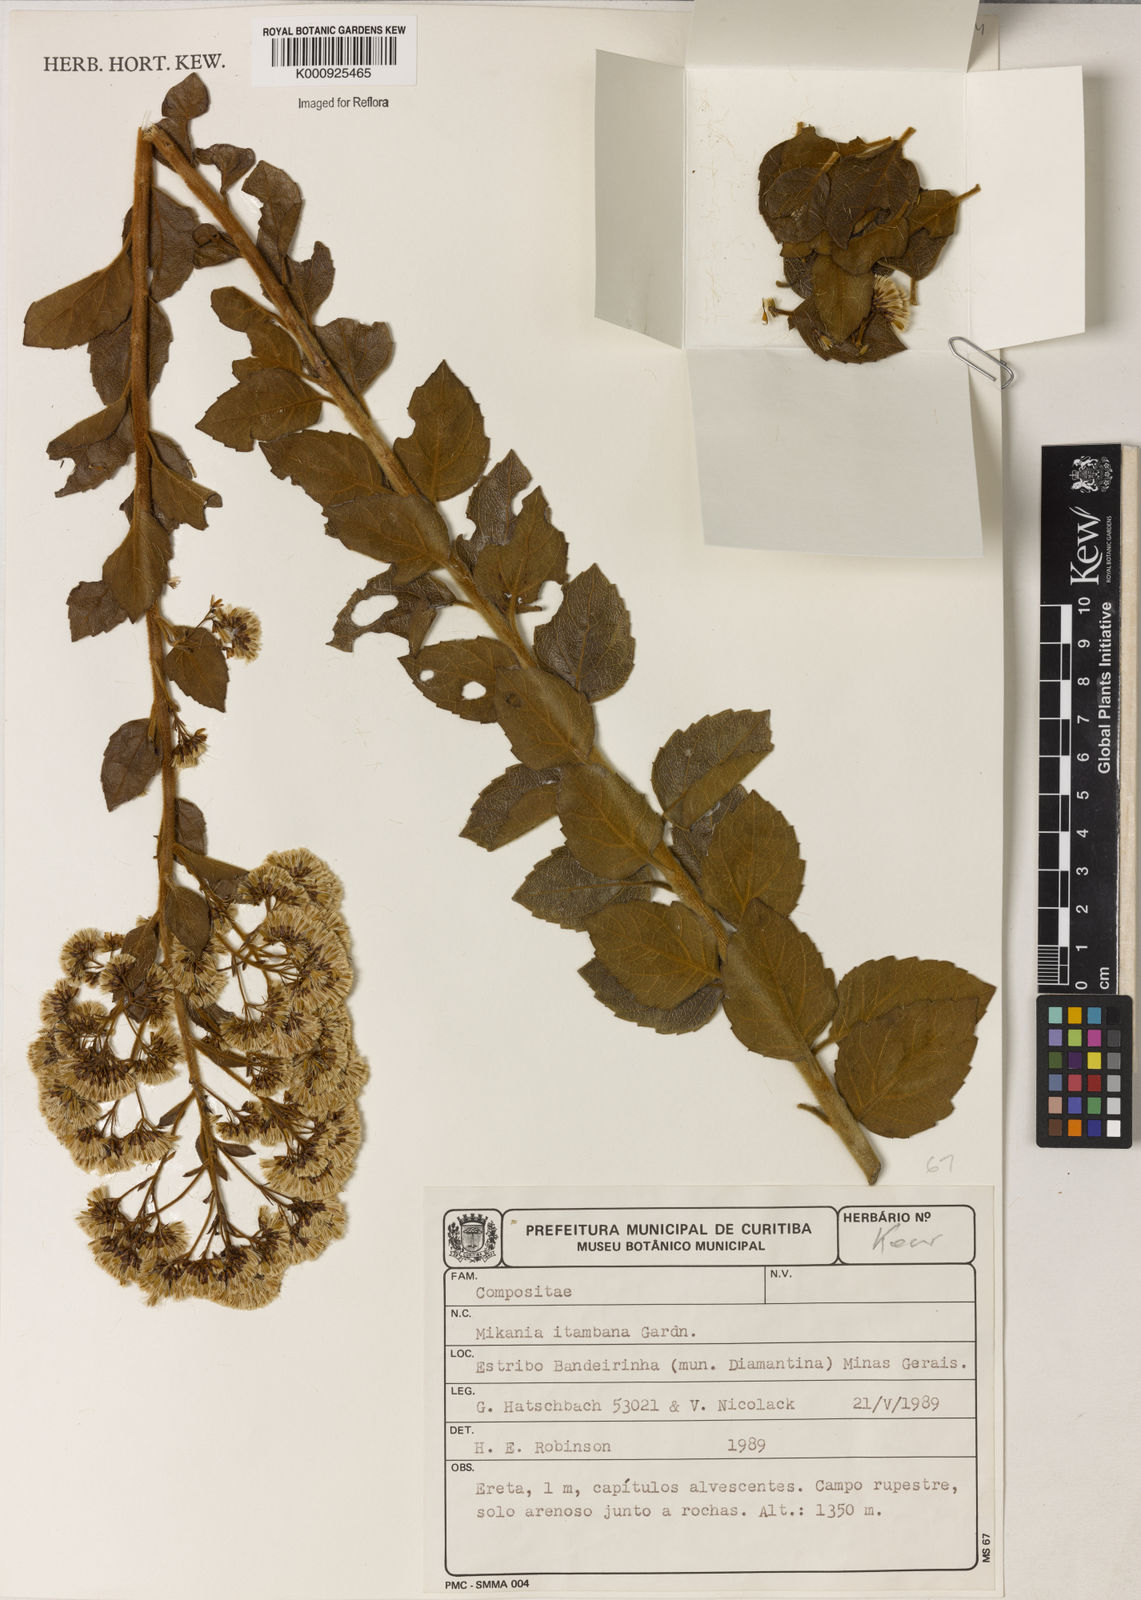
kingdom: Plantae
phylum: Tracheophyta
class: Magnoliopsida
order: Asterales
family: Asteraceae
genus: Mikania
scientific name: Mikania itambana
